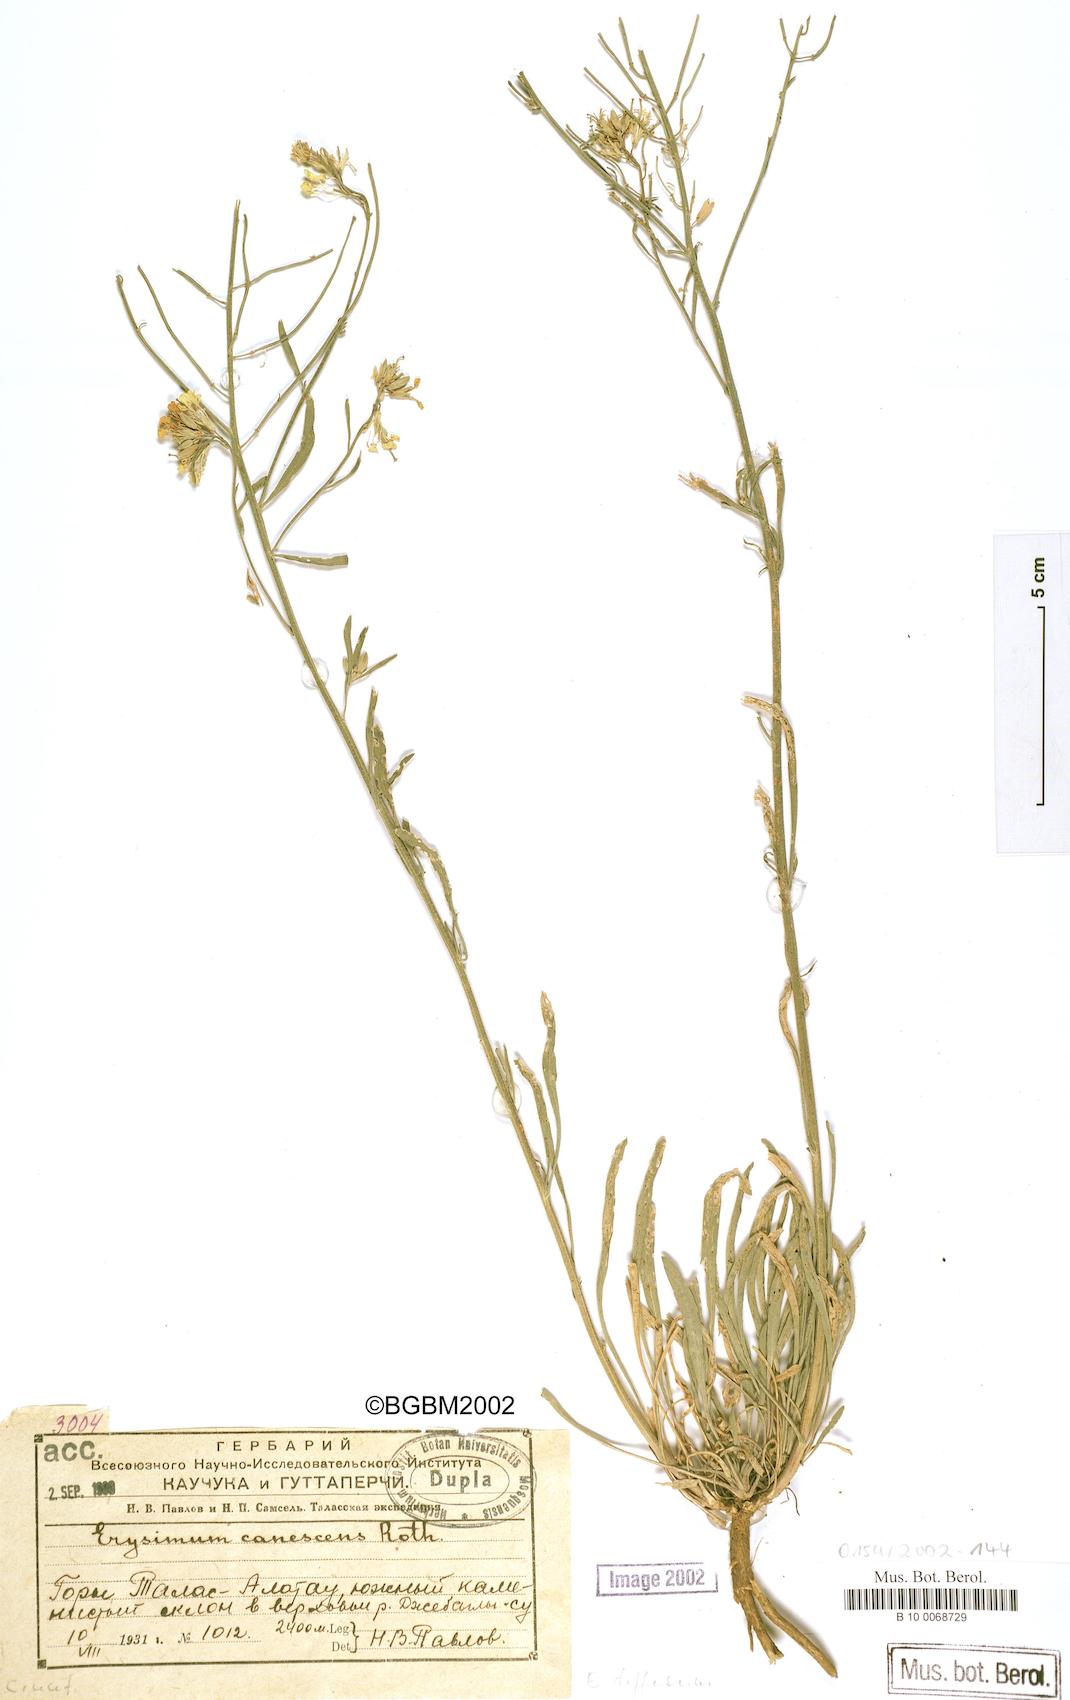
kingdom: Plantae
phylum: Tracheophyta
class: Magnoliopsida
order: Brassicales
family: Brassicaceae
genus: Erysimum
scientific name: Erysimum diffusum
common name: Diffuse wallflower
